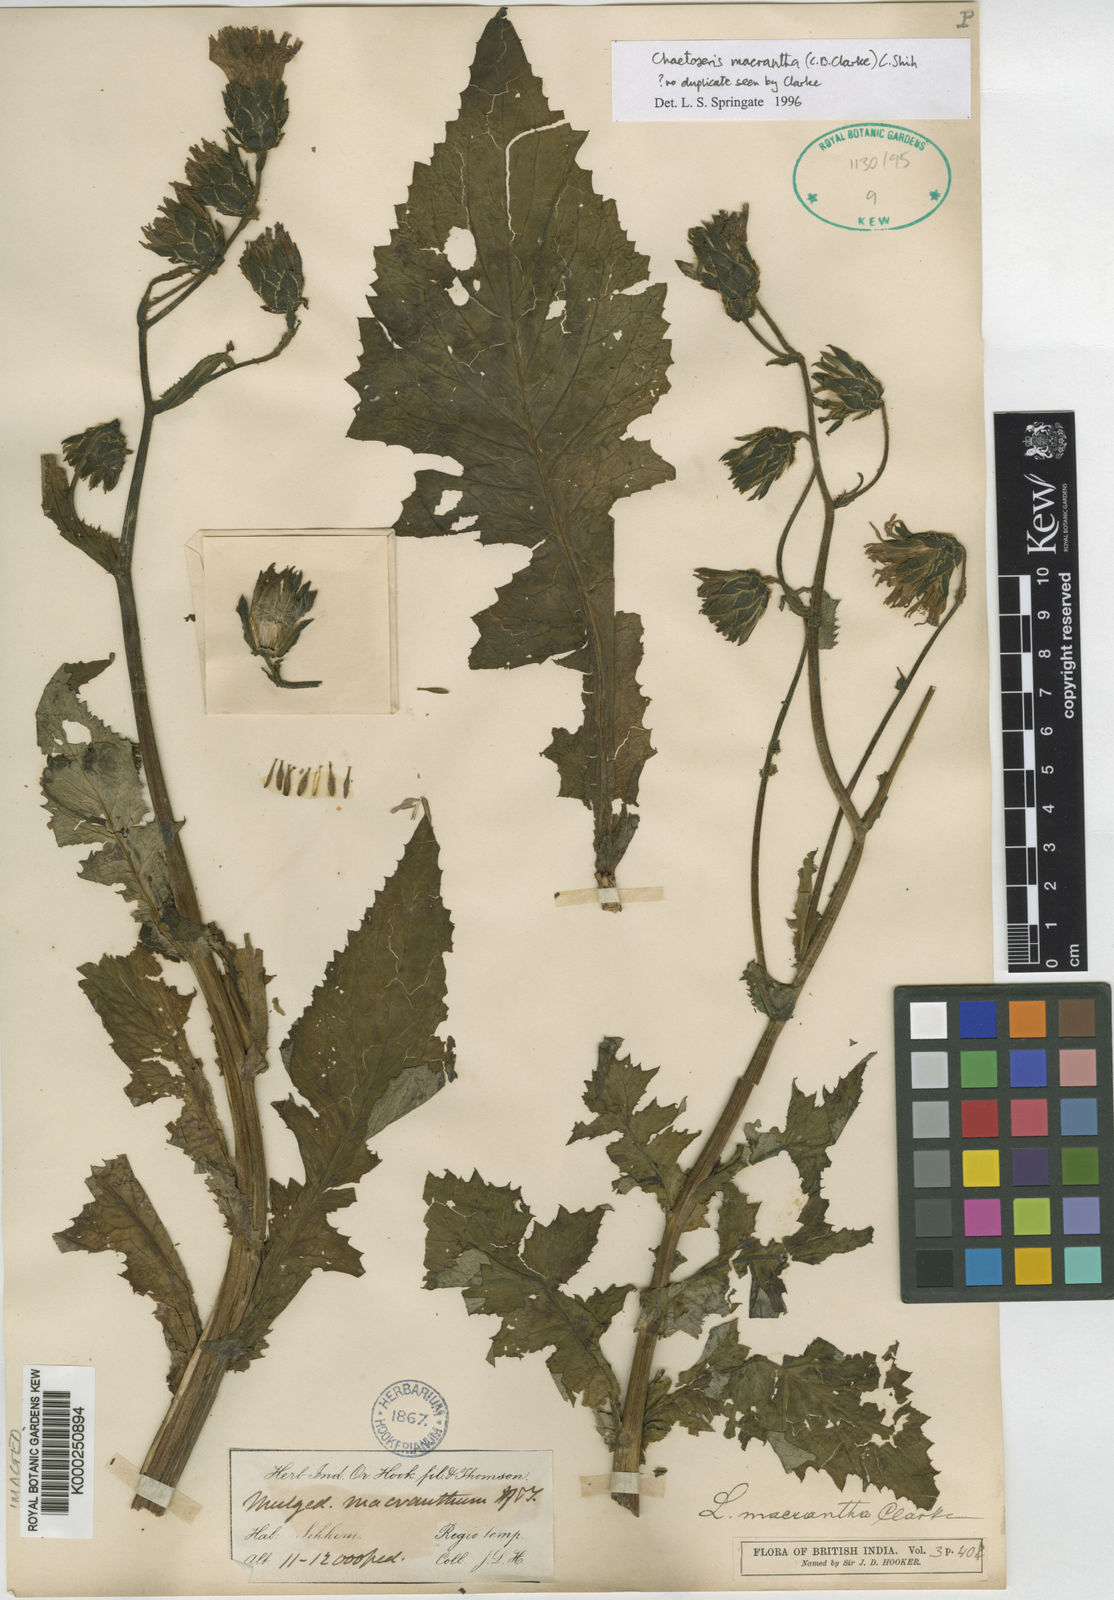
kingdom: Plantae
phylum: Tracheophyta
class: Magnoliopsida
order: Asterales
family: Asteraceae
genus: Melanoseris
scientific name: Melanoseris macrantha
